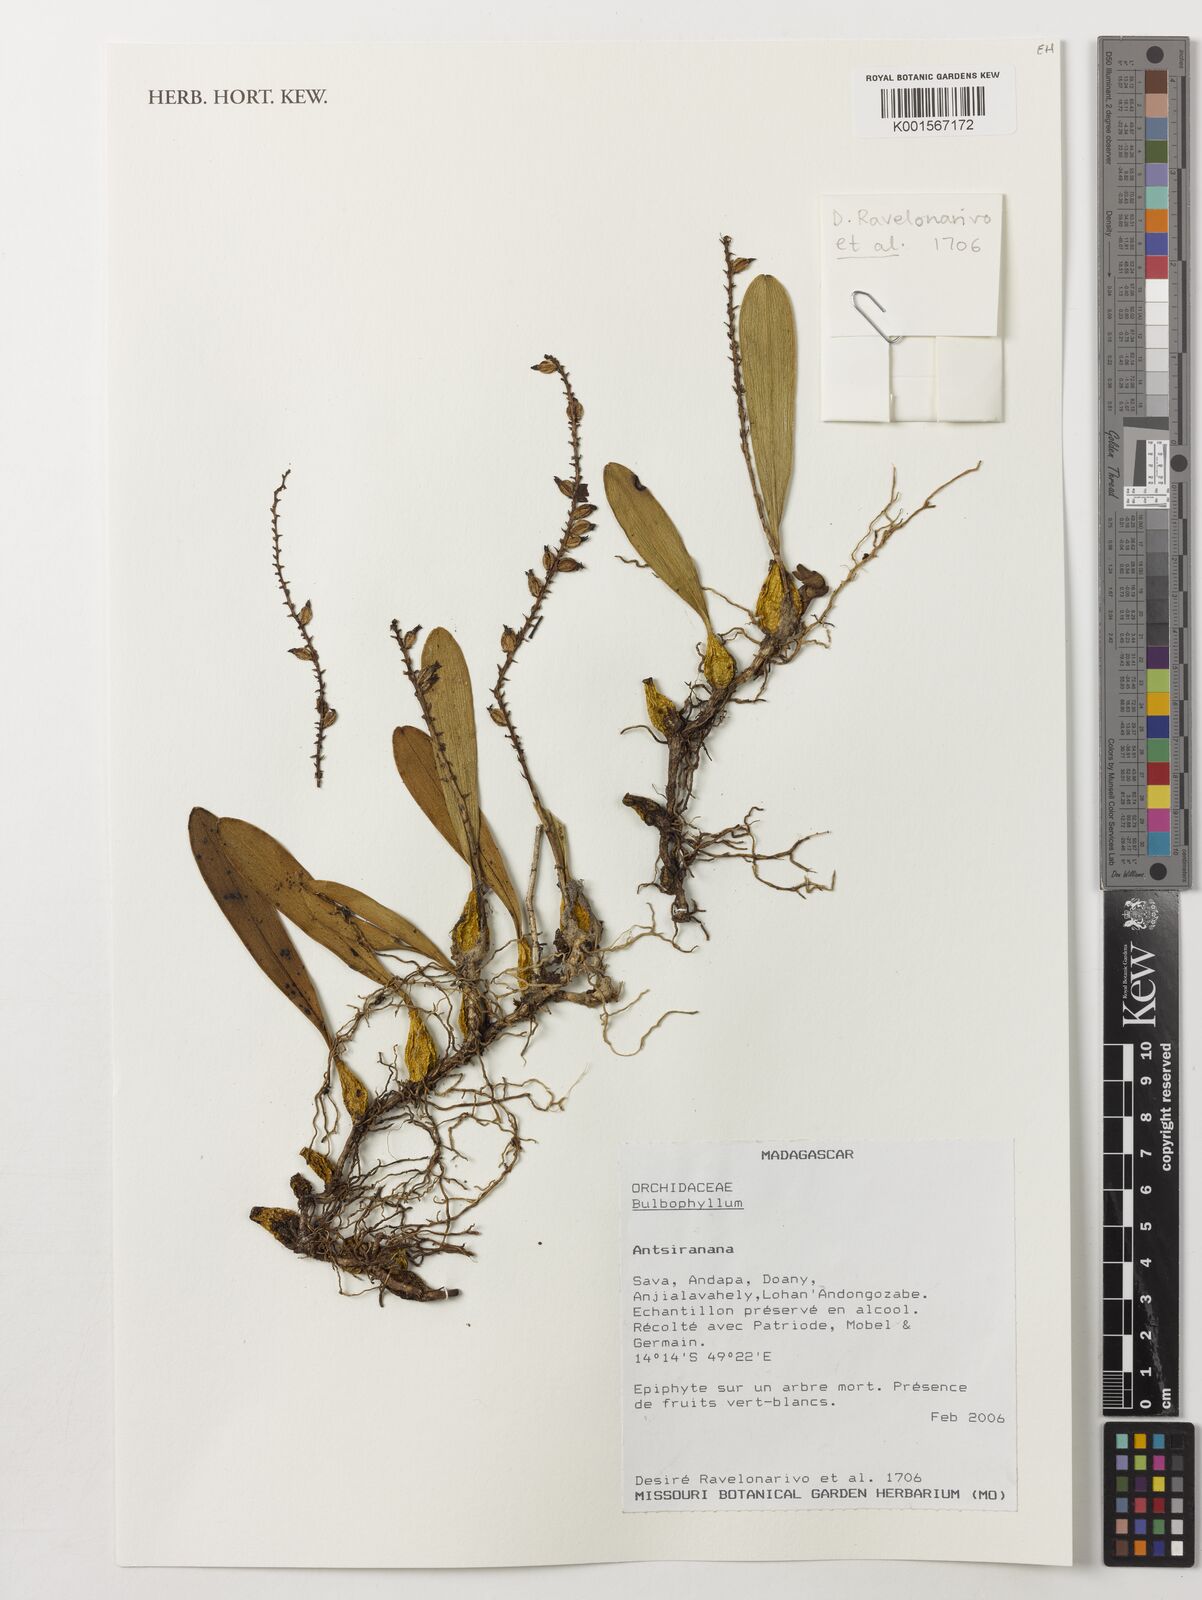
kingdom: Plantae
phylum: Tracheophyta
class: Liliopsida
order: Asparagales
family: Orchidaceae
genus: Bulbophyllum
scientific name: Bulbophyllum
